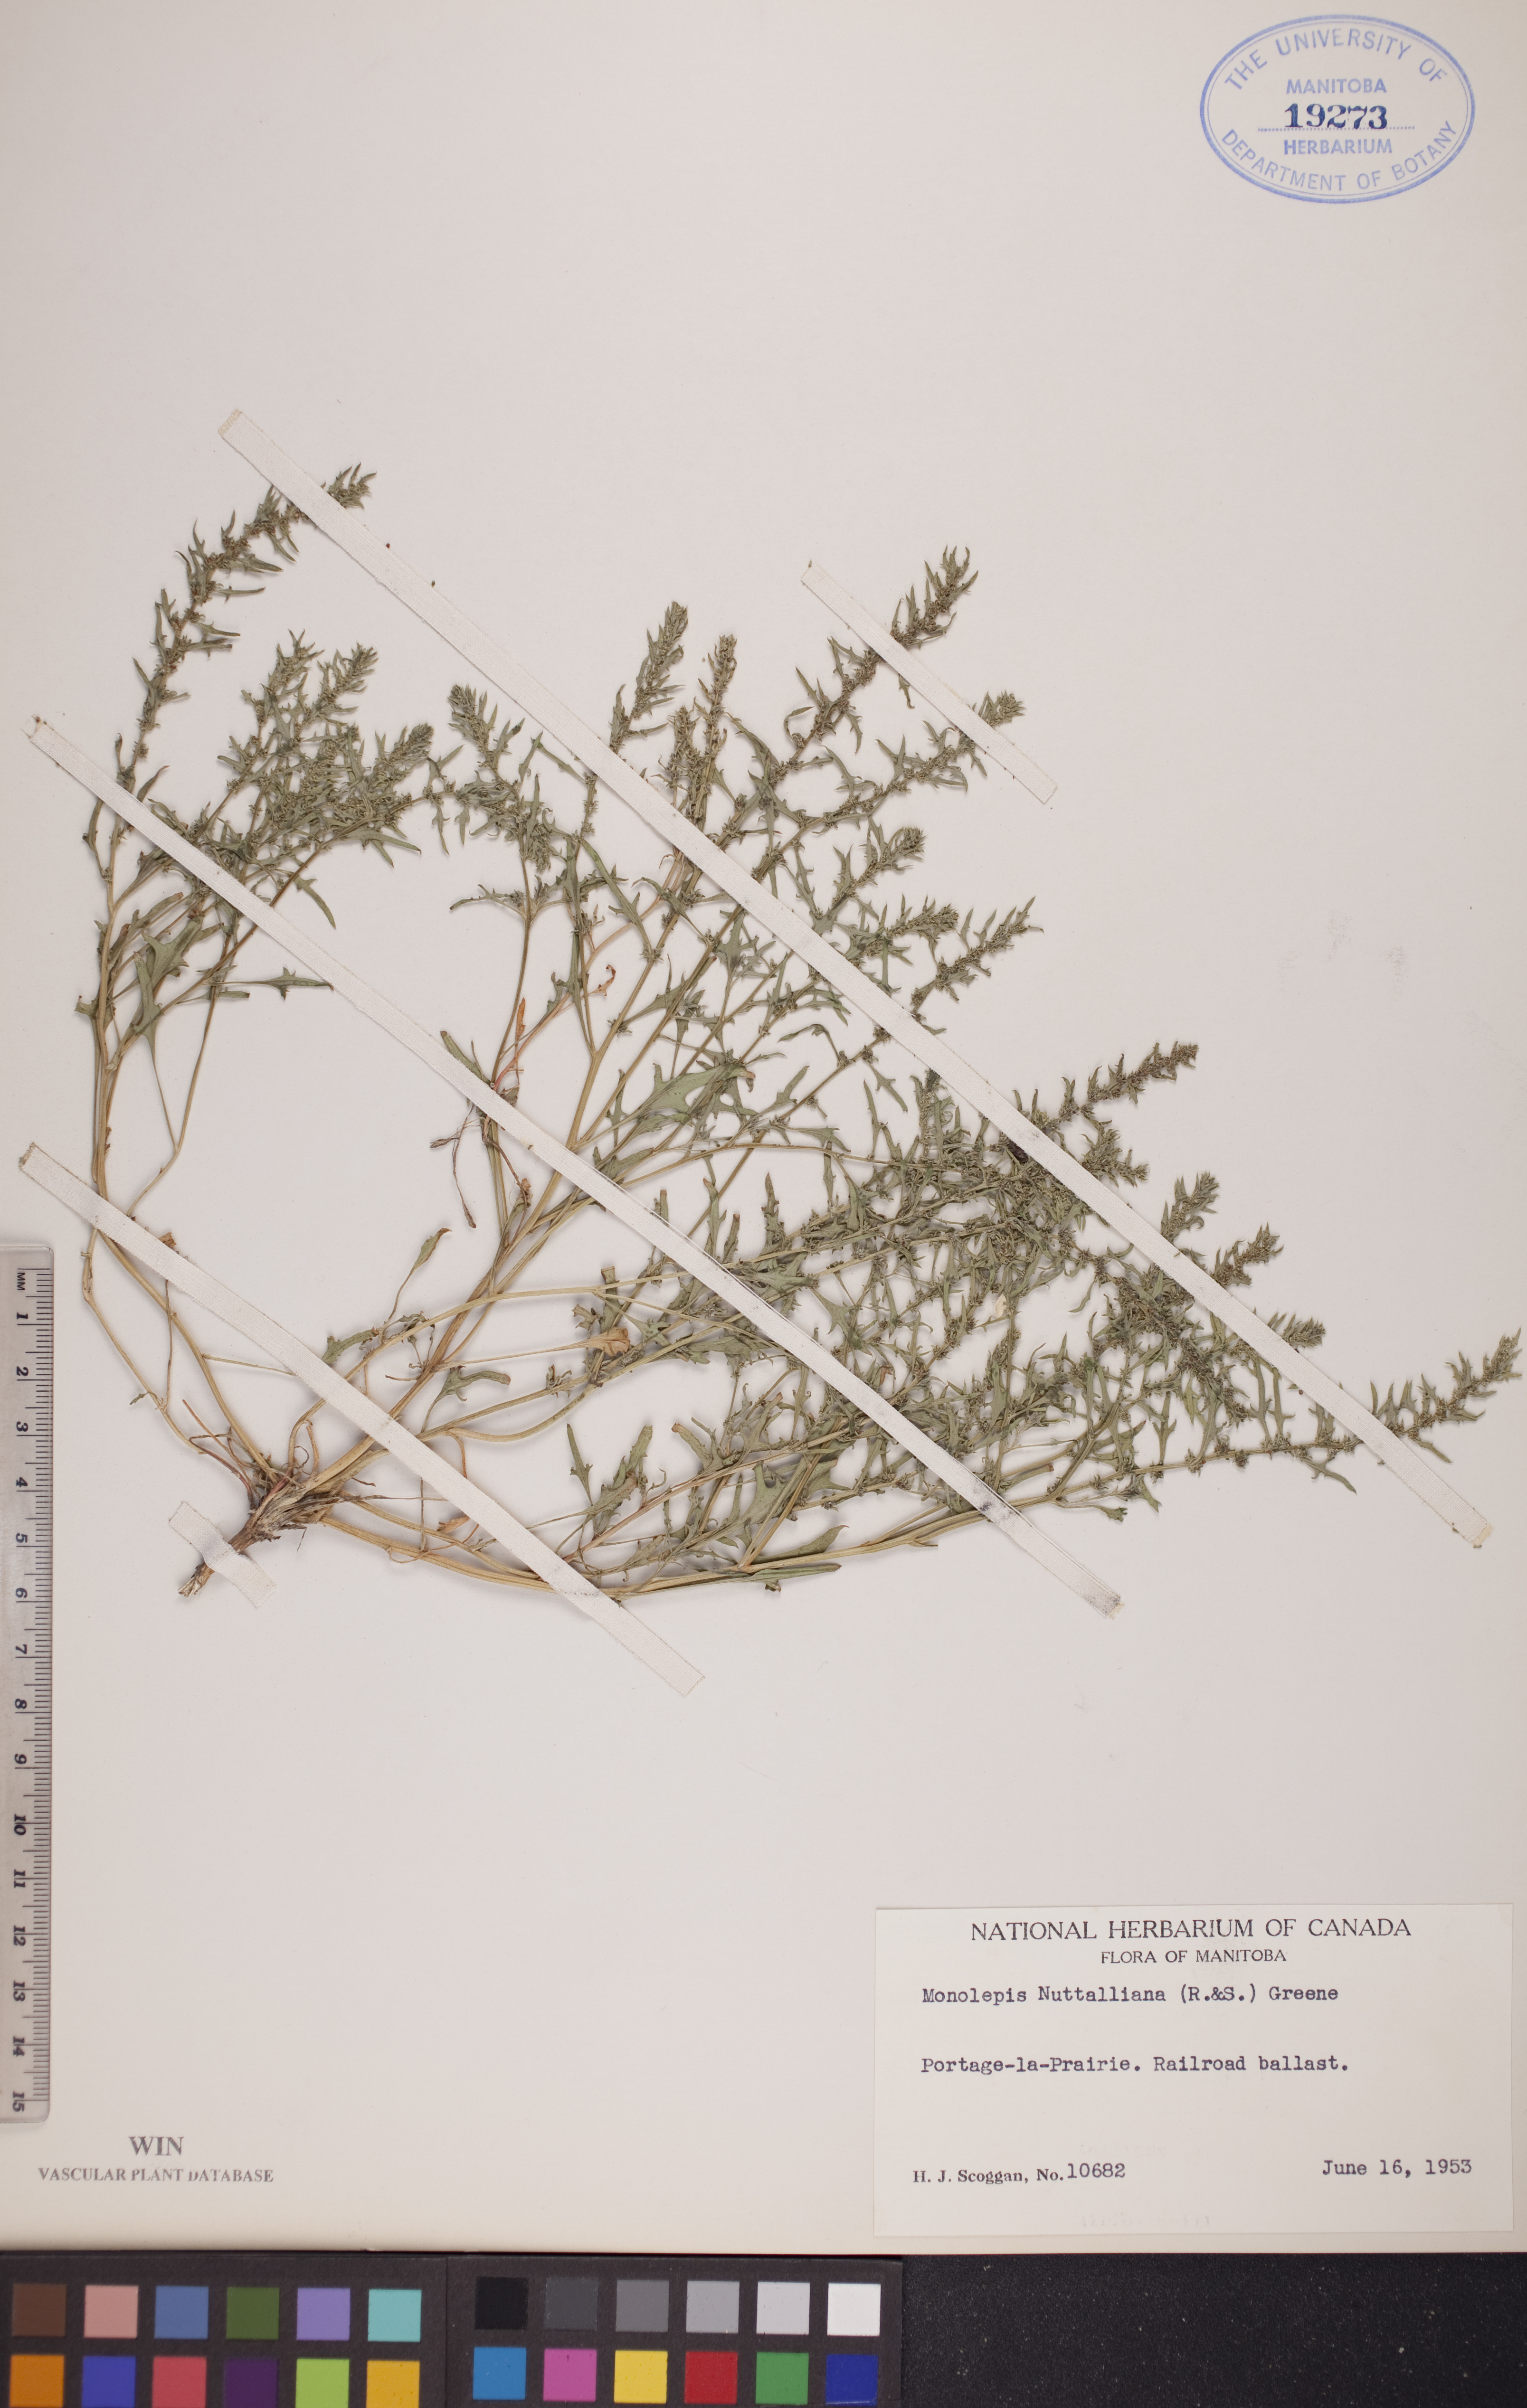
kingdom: Plantae
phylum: Tracheophyta
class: Magnoliopsida
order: Caryophyllales
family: Amaranthaceae
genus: Blitum
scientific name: Blitum nuttallianum
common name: Poverty-weed
